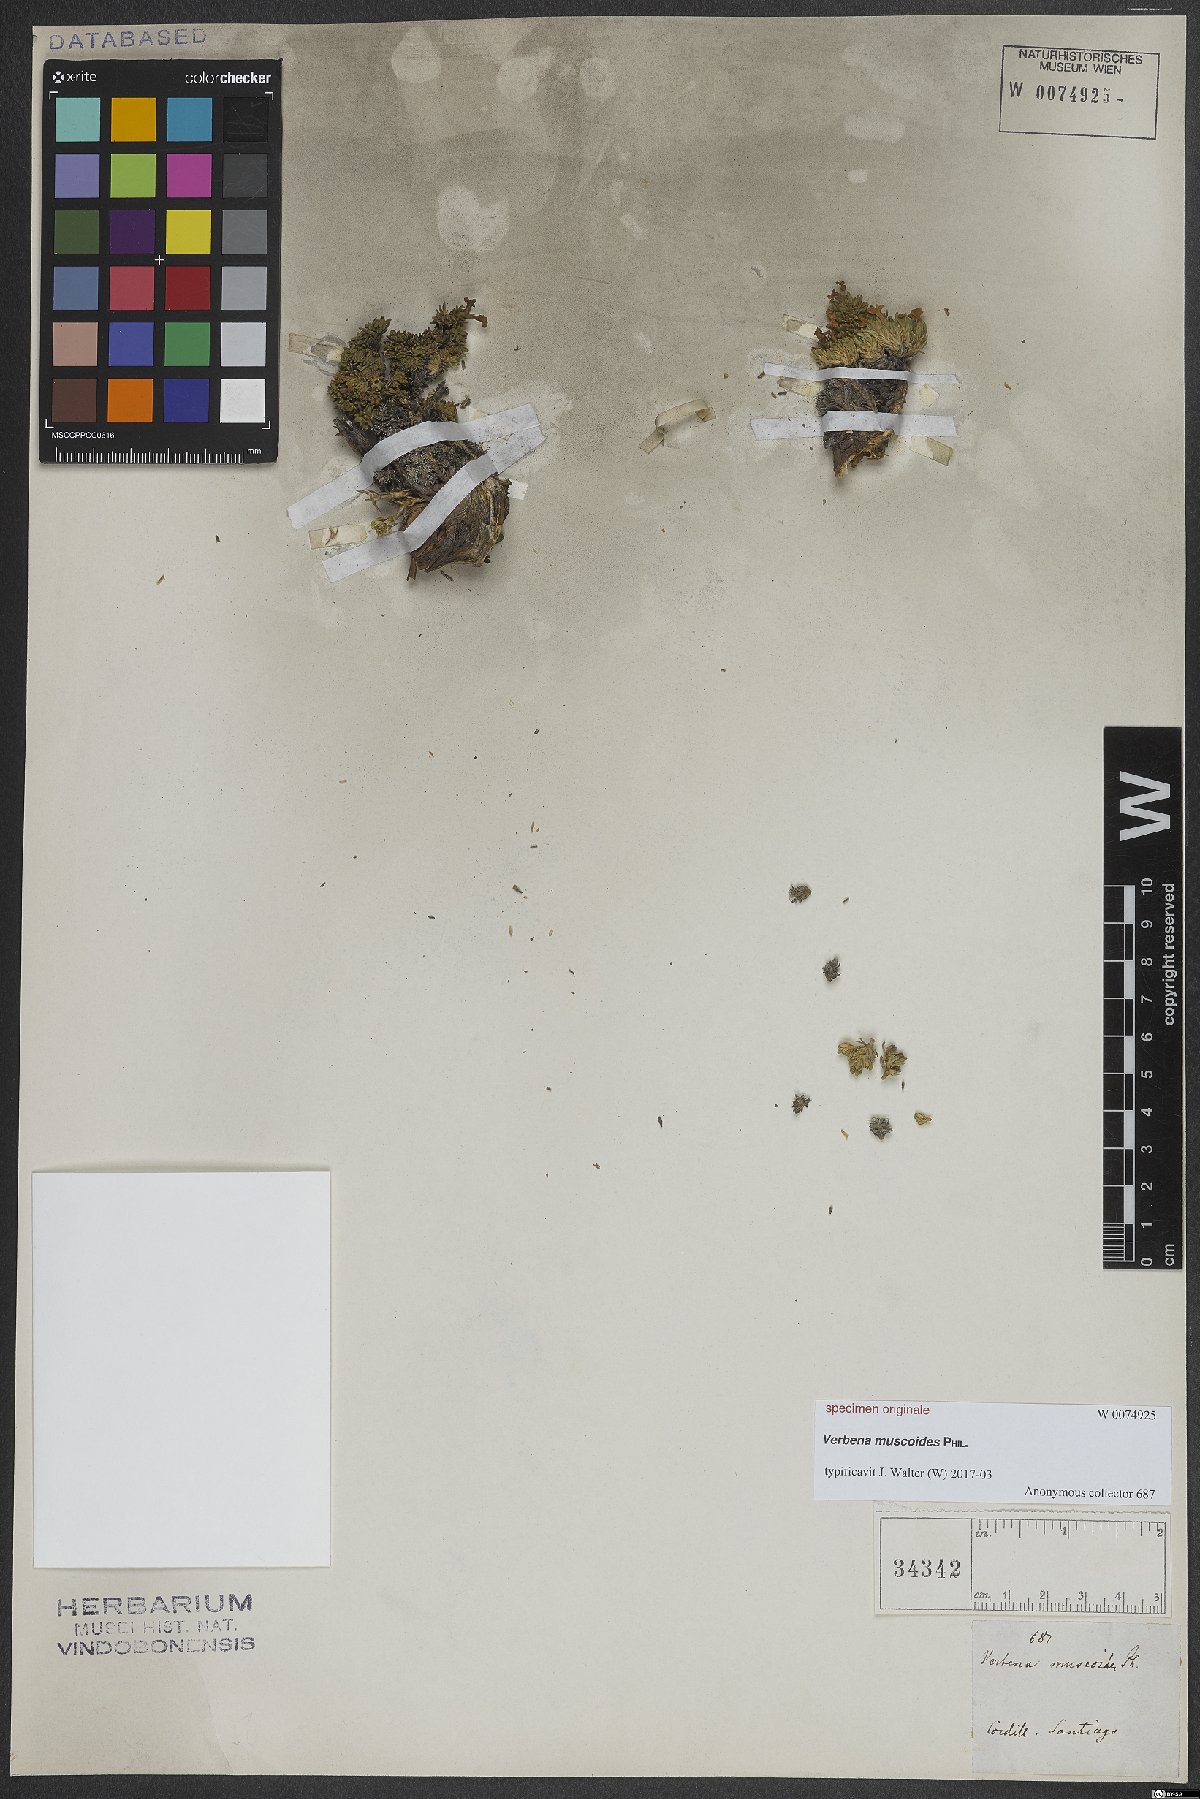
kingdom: Plantae
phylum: Tracheophyta
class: Magnoliopsida
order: Lamiales
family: Verbenaceae
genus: Verbena
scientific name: Verbena
